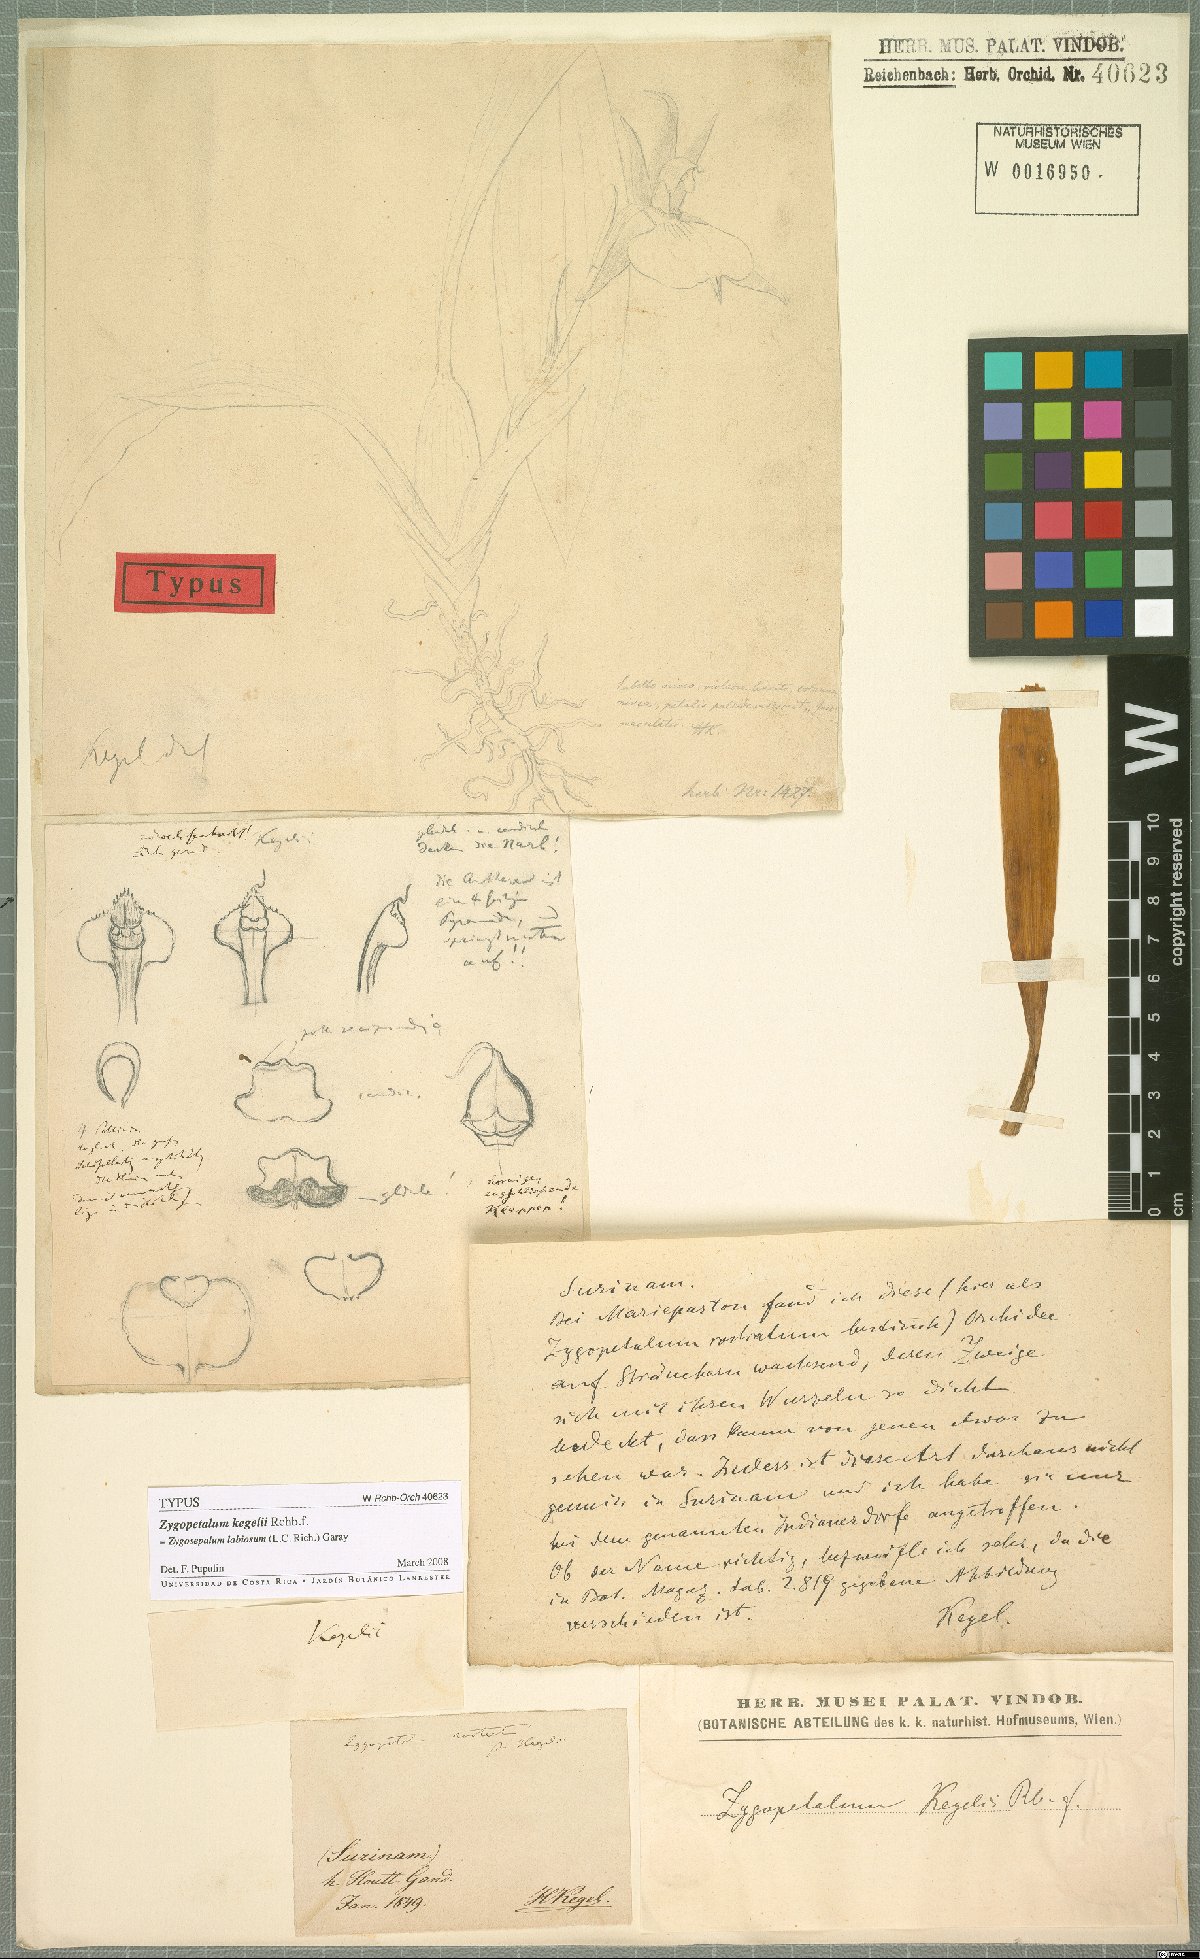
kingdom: Plantae
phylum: Tracheophyta
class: Liliopsida
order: Asparagales
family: Orchidaceae
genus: Zygosepalum
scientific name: Zygosepalum labiosum
